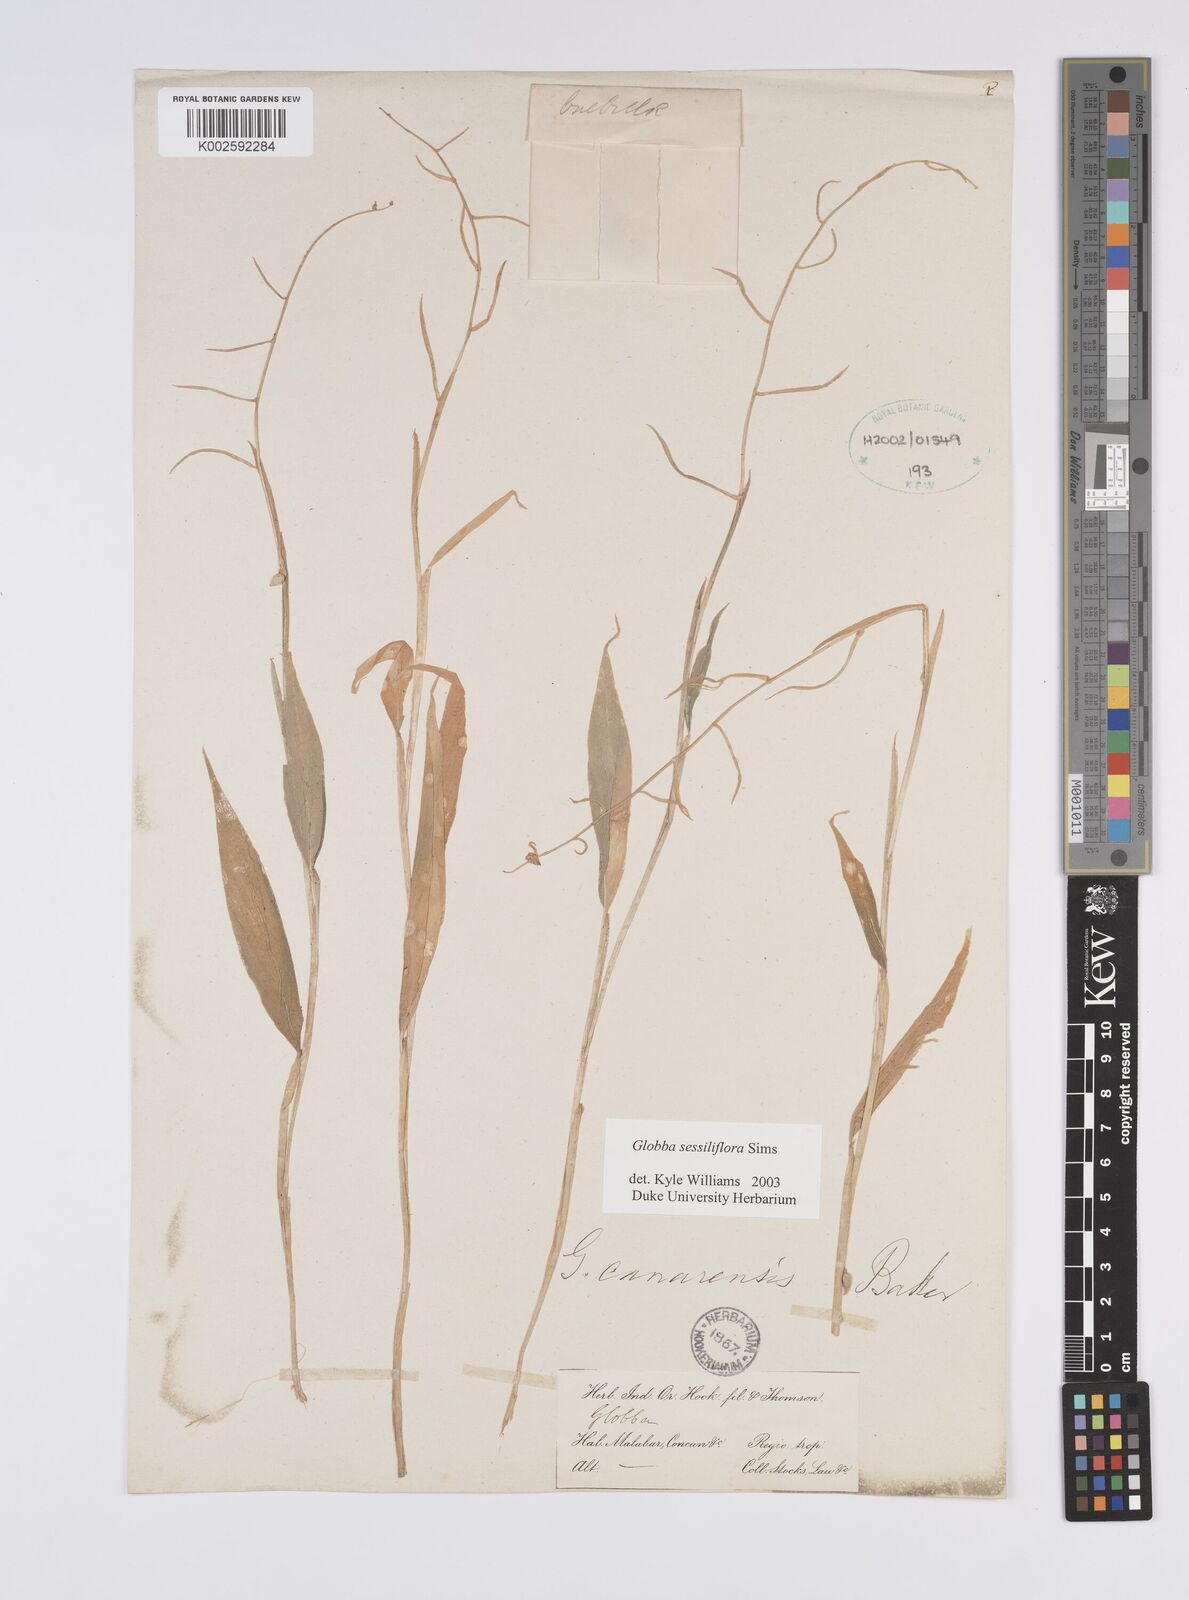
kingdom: Plantae
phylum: Tracheophyta
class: Liliopsida
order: Zingiberales
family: Zingiberaceae
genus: Globba
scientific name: Globba sessiliflora
